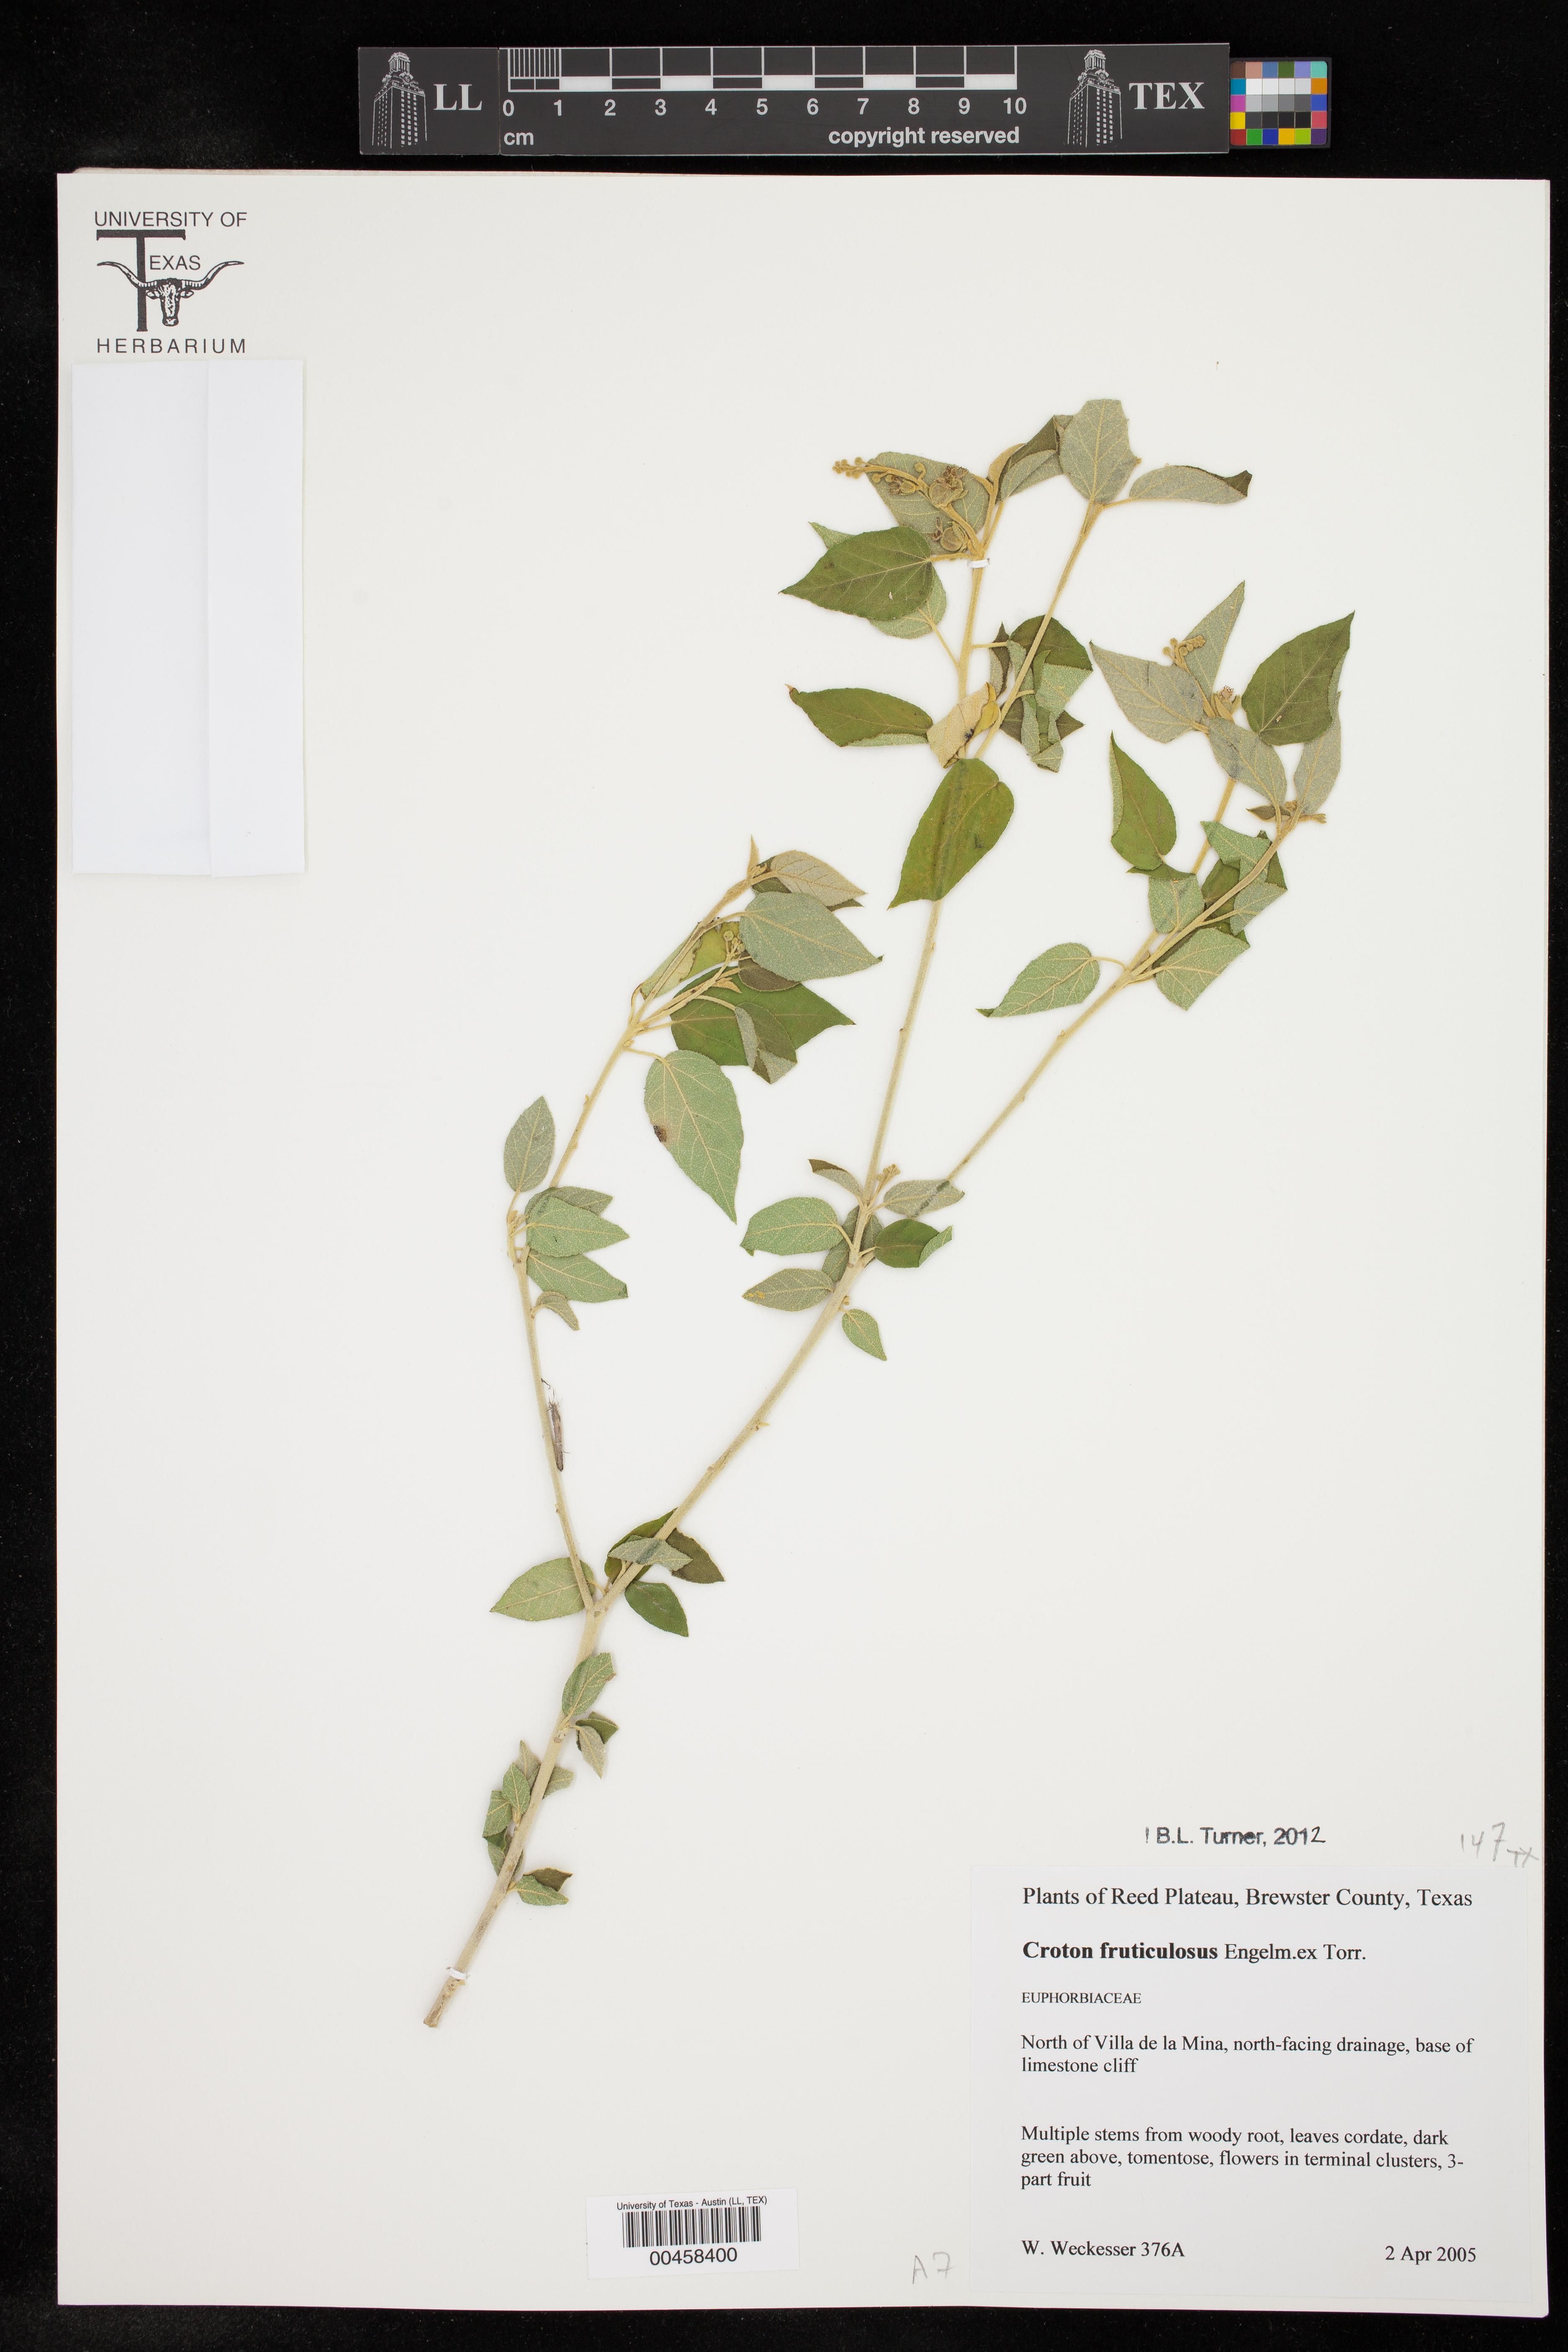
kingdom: Plantae
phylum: Tracheophyta
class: Magnoliopsida
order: Malpighiales
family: Euphorbiaceae
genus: Croton
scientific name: Croton fruticulosus
